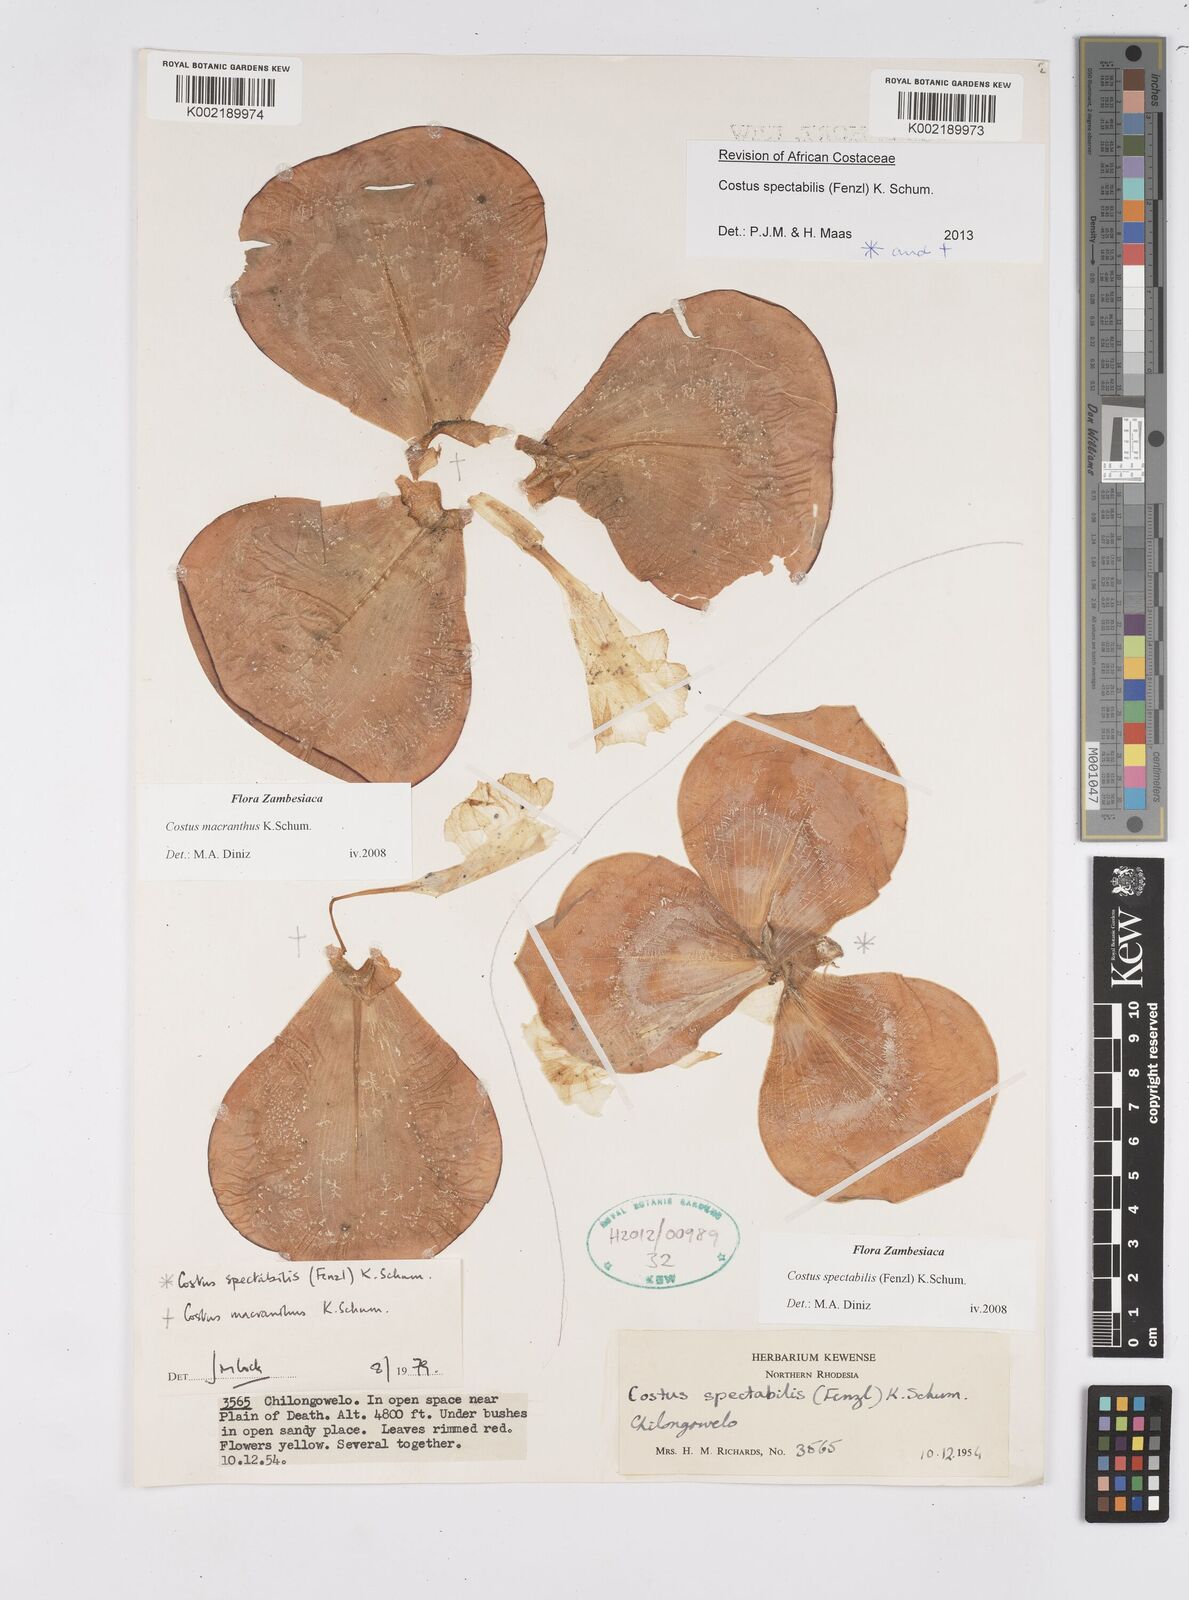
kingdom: Plantae
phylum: Tracheophyta
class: Liliopsida
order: Zingiberales
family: Costaceae
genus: Costus
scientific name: Costus spectabilis
